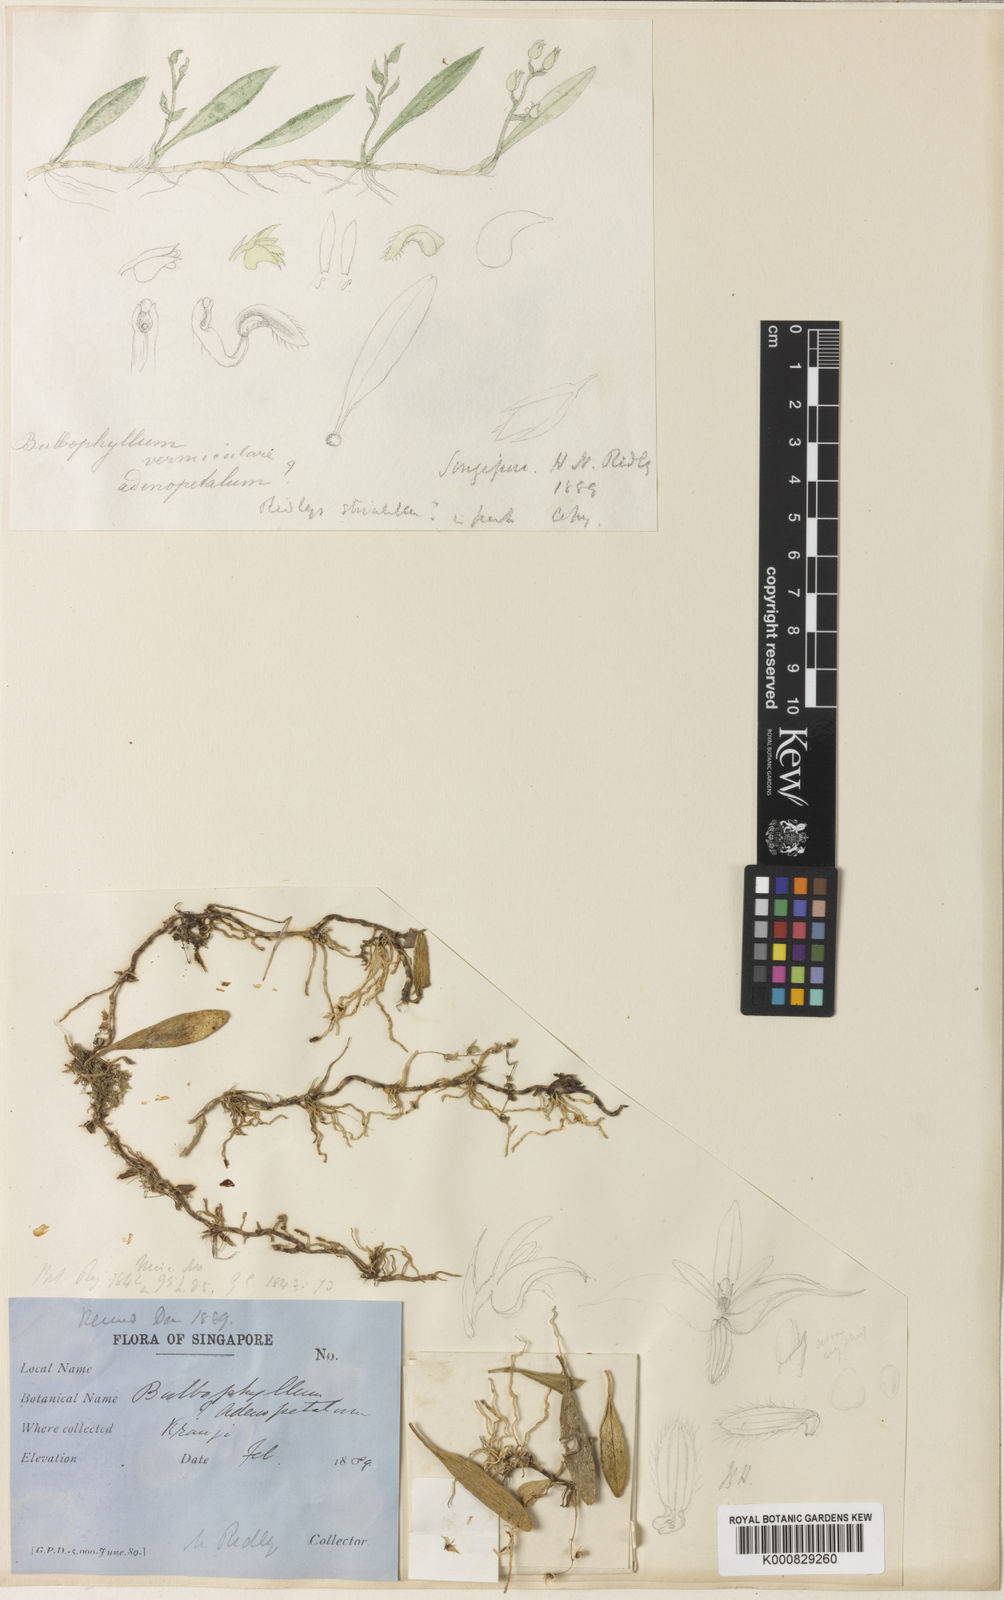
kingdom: Plantae
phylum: Tracheophyta
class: Liliopsida
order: Asparagales
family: Orchidaceae
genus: Bulbophyllum
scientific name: Bulbophyllum vermiculare
